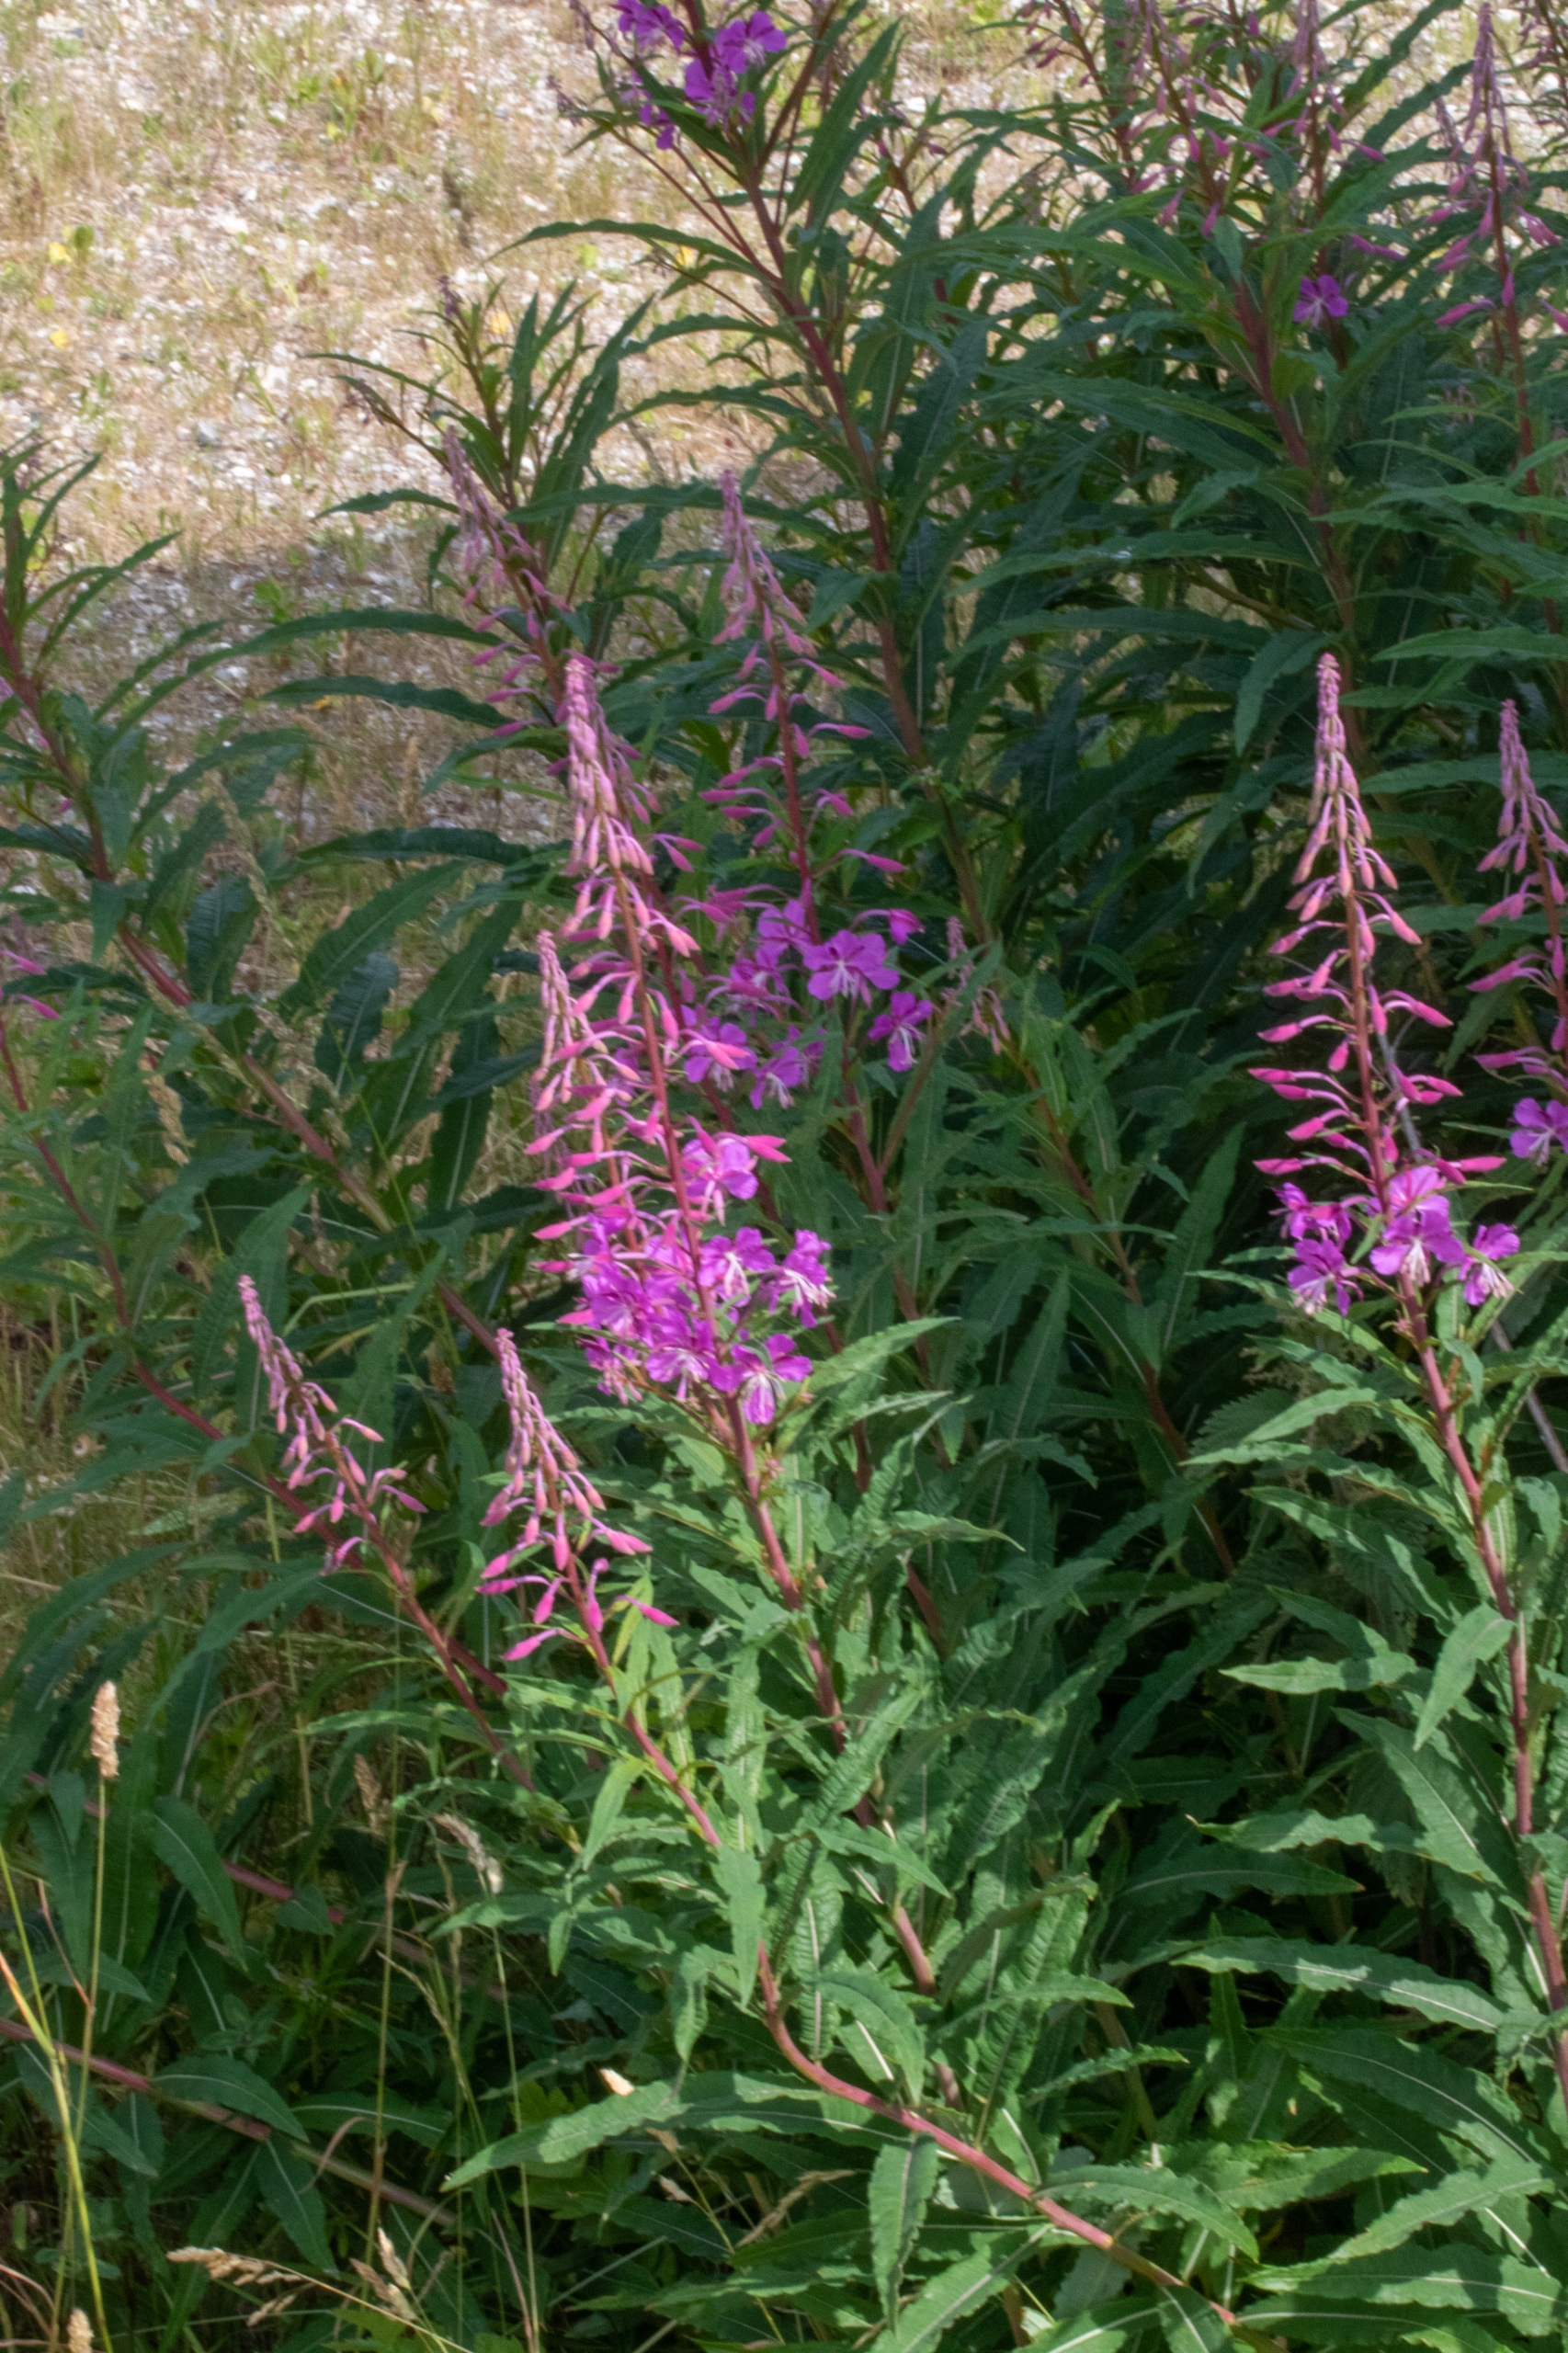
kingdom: Plantae
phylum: Tracheophyta
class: Magnoliopsida
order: Myrtales
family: Onagraceae
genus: Chamaenerion
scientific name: Chamaenerion angustifolium
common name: Gederams
